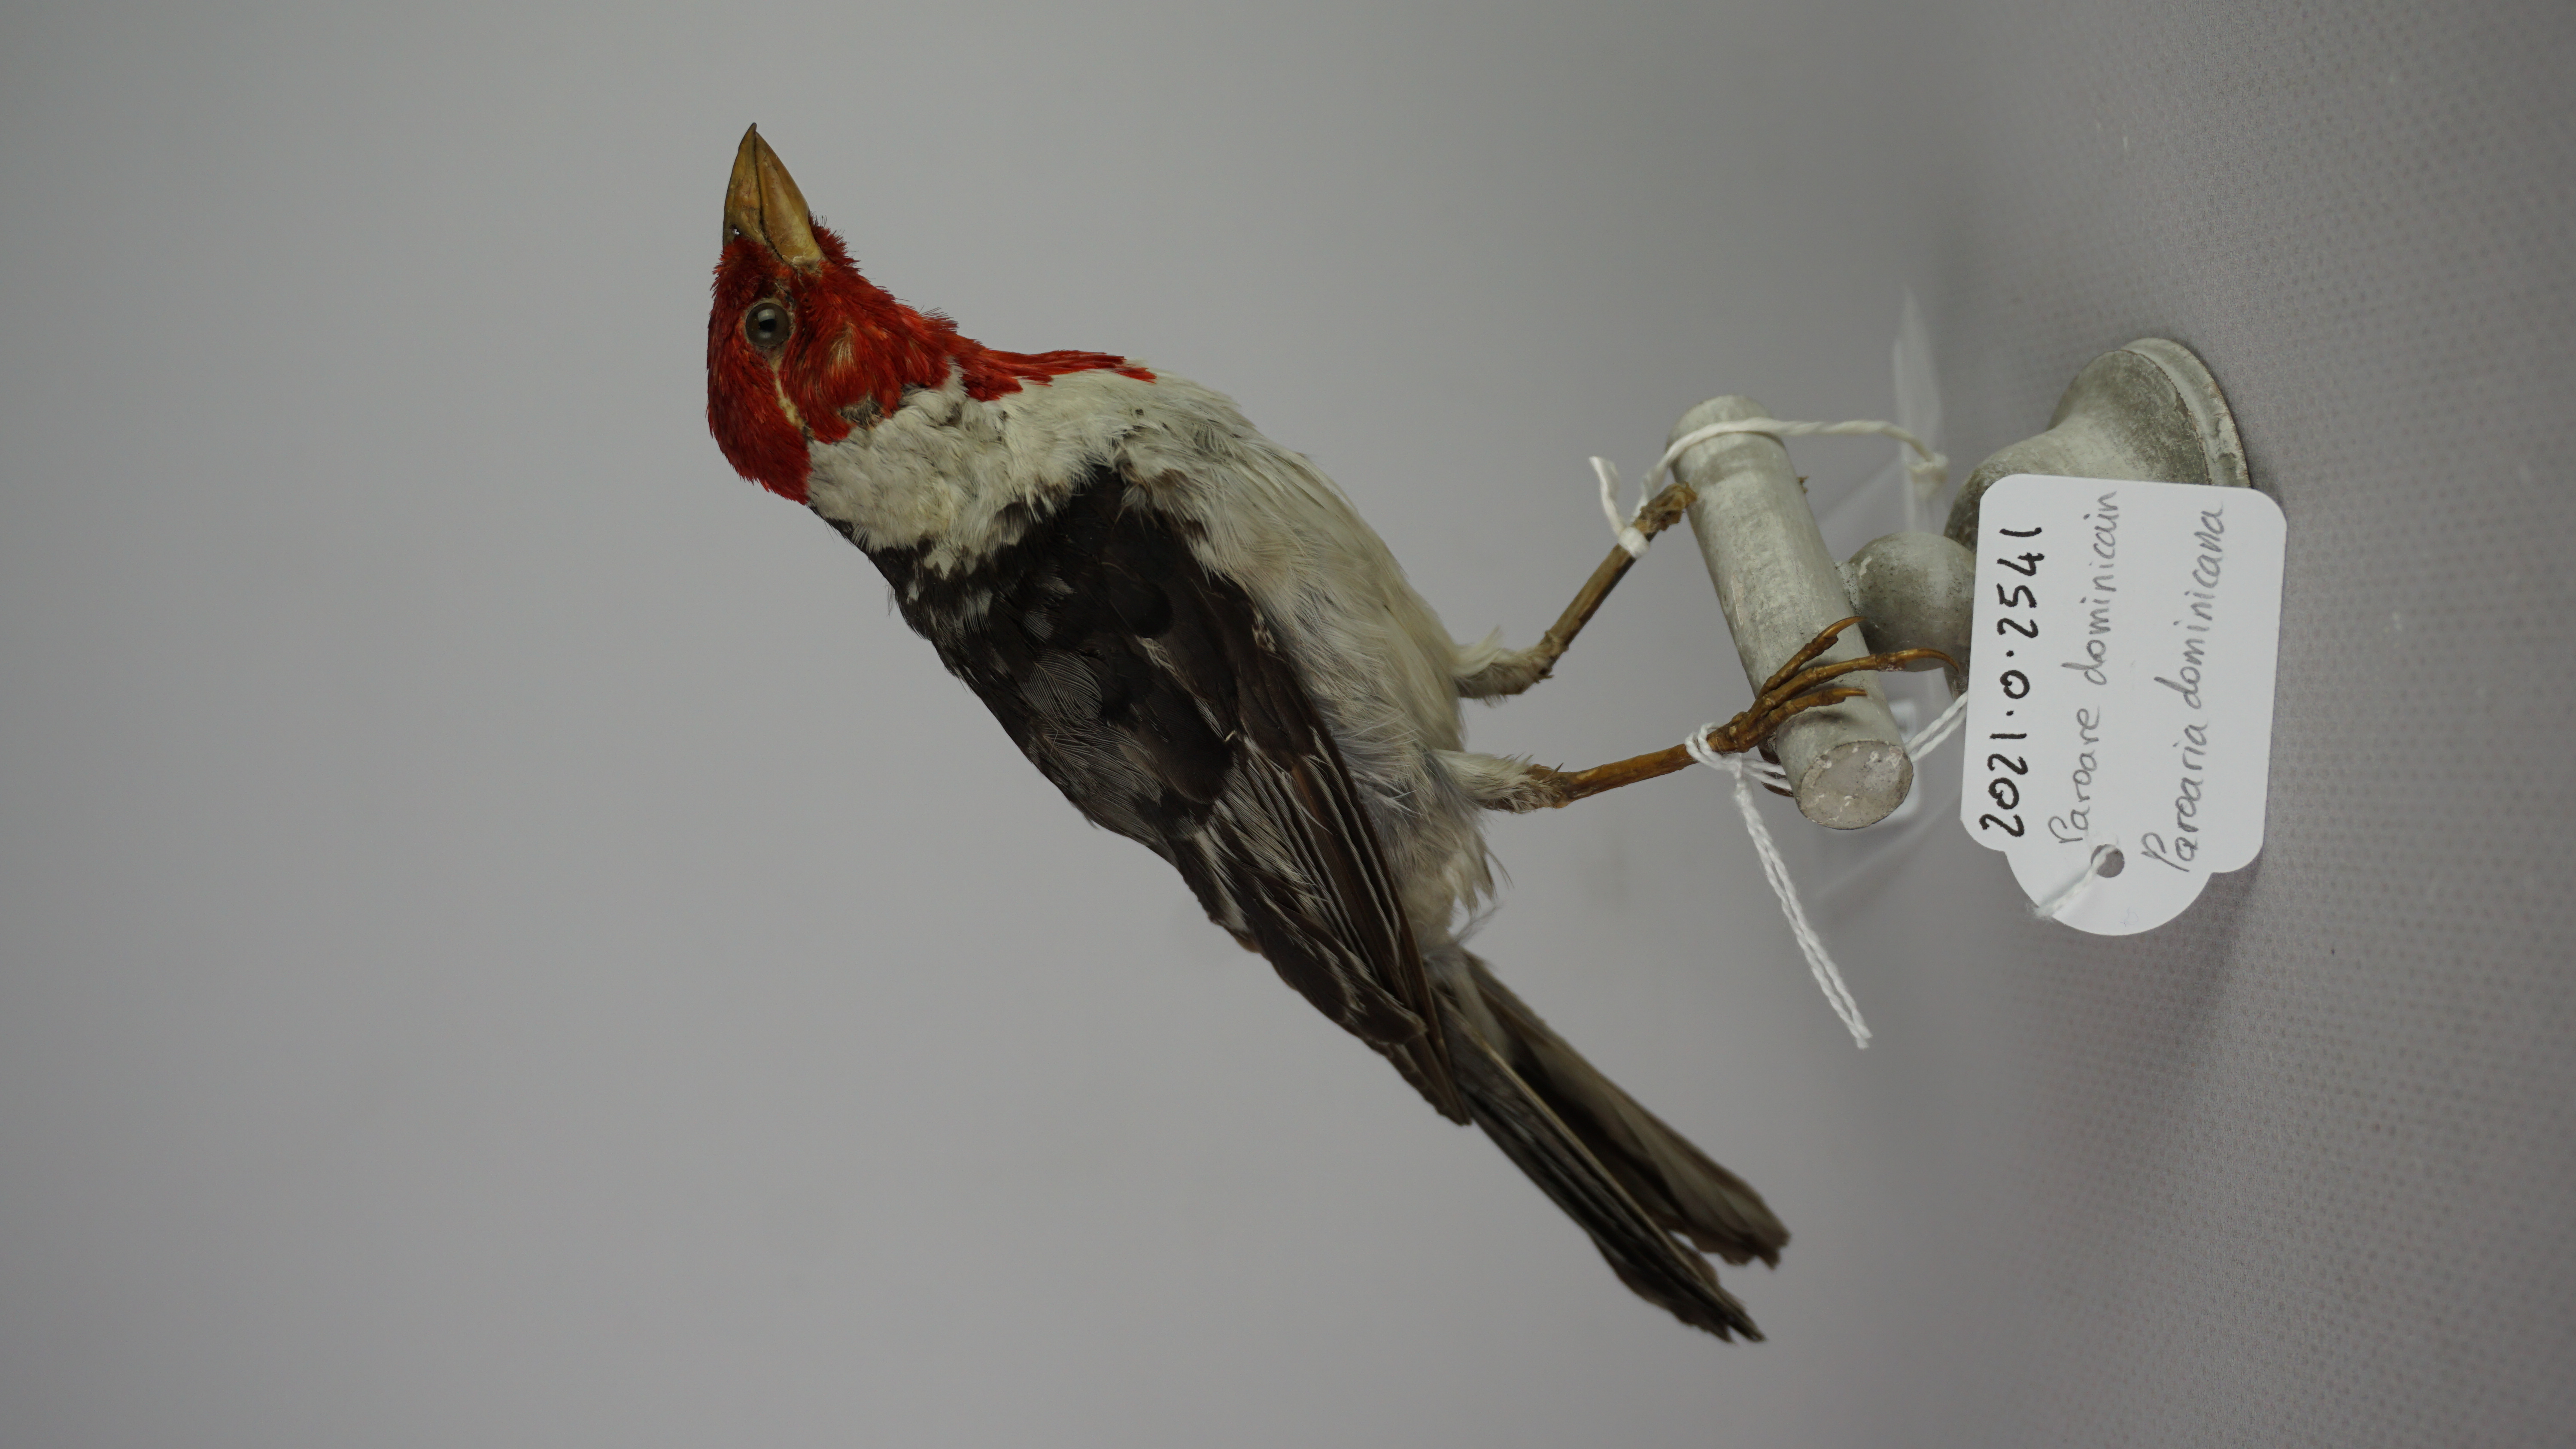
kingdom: Animalia
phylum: Chordata
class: Aves
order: Passeriformes
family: Thraupidae
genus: Paroaria
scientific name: Paroaria dominicana
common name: Red-cowled cardinal
